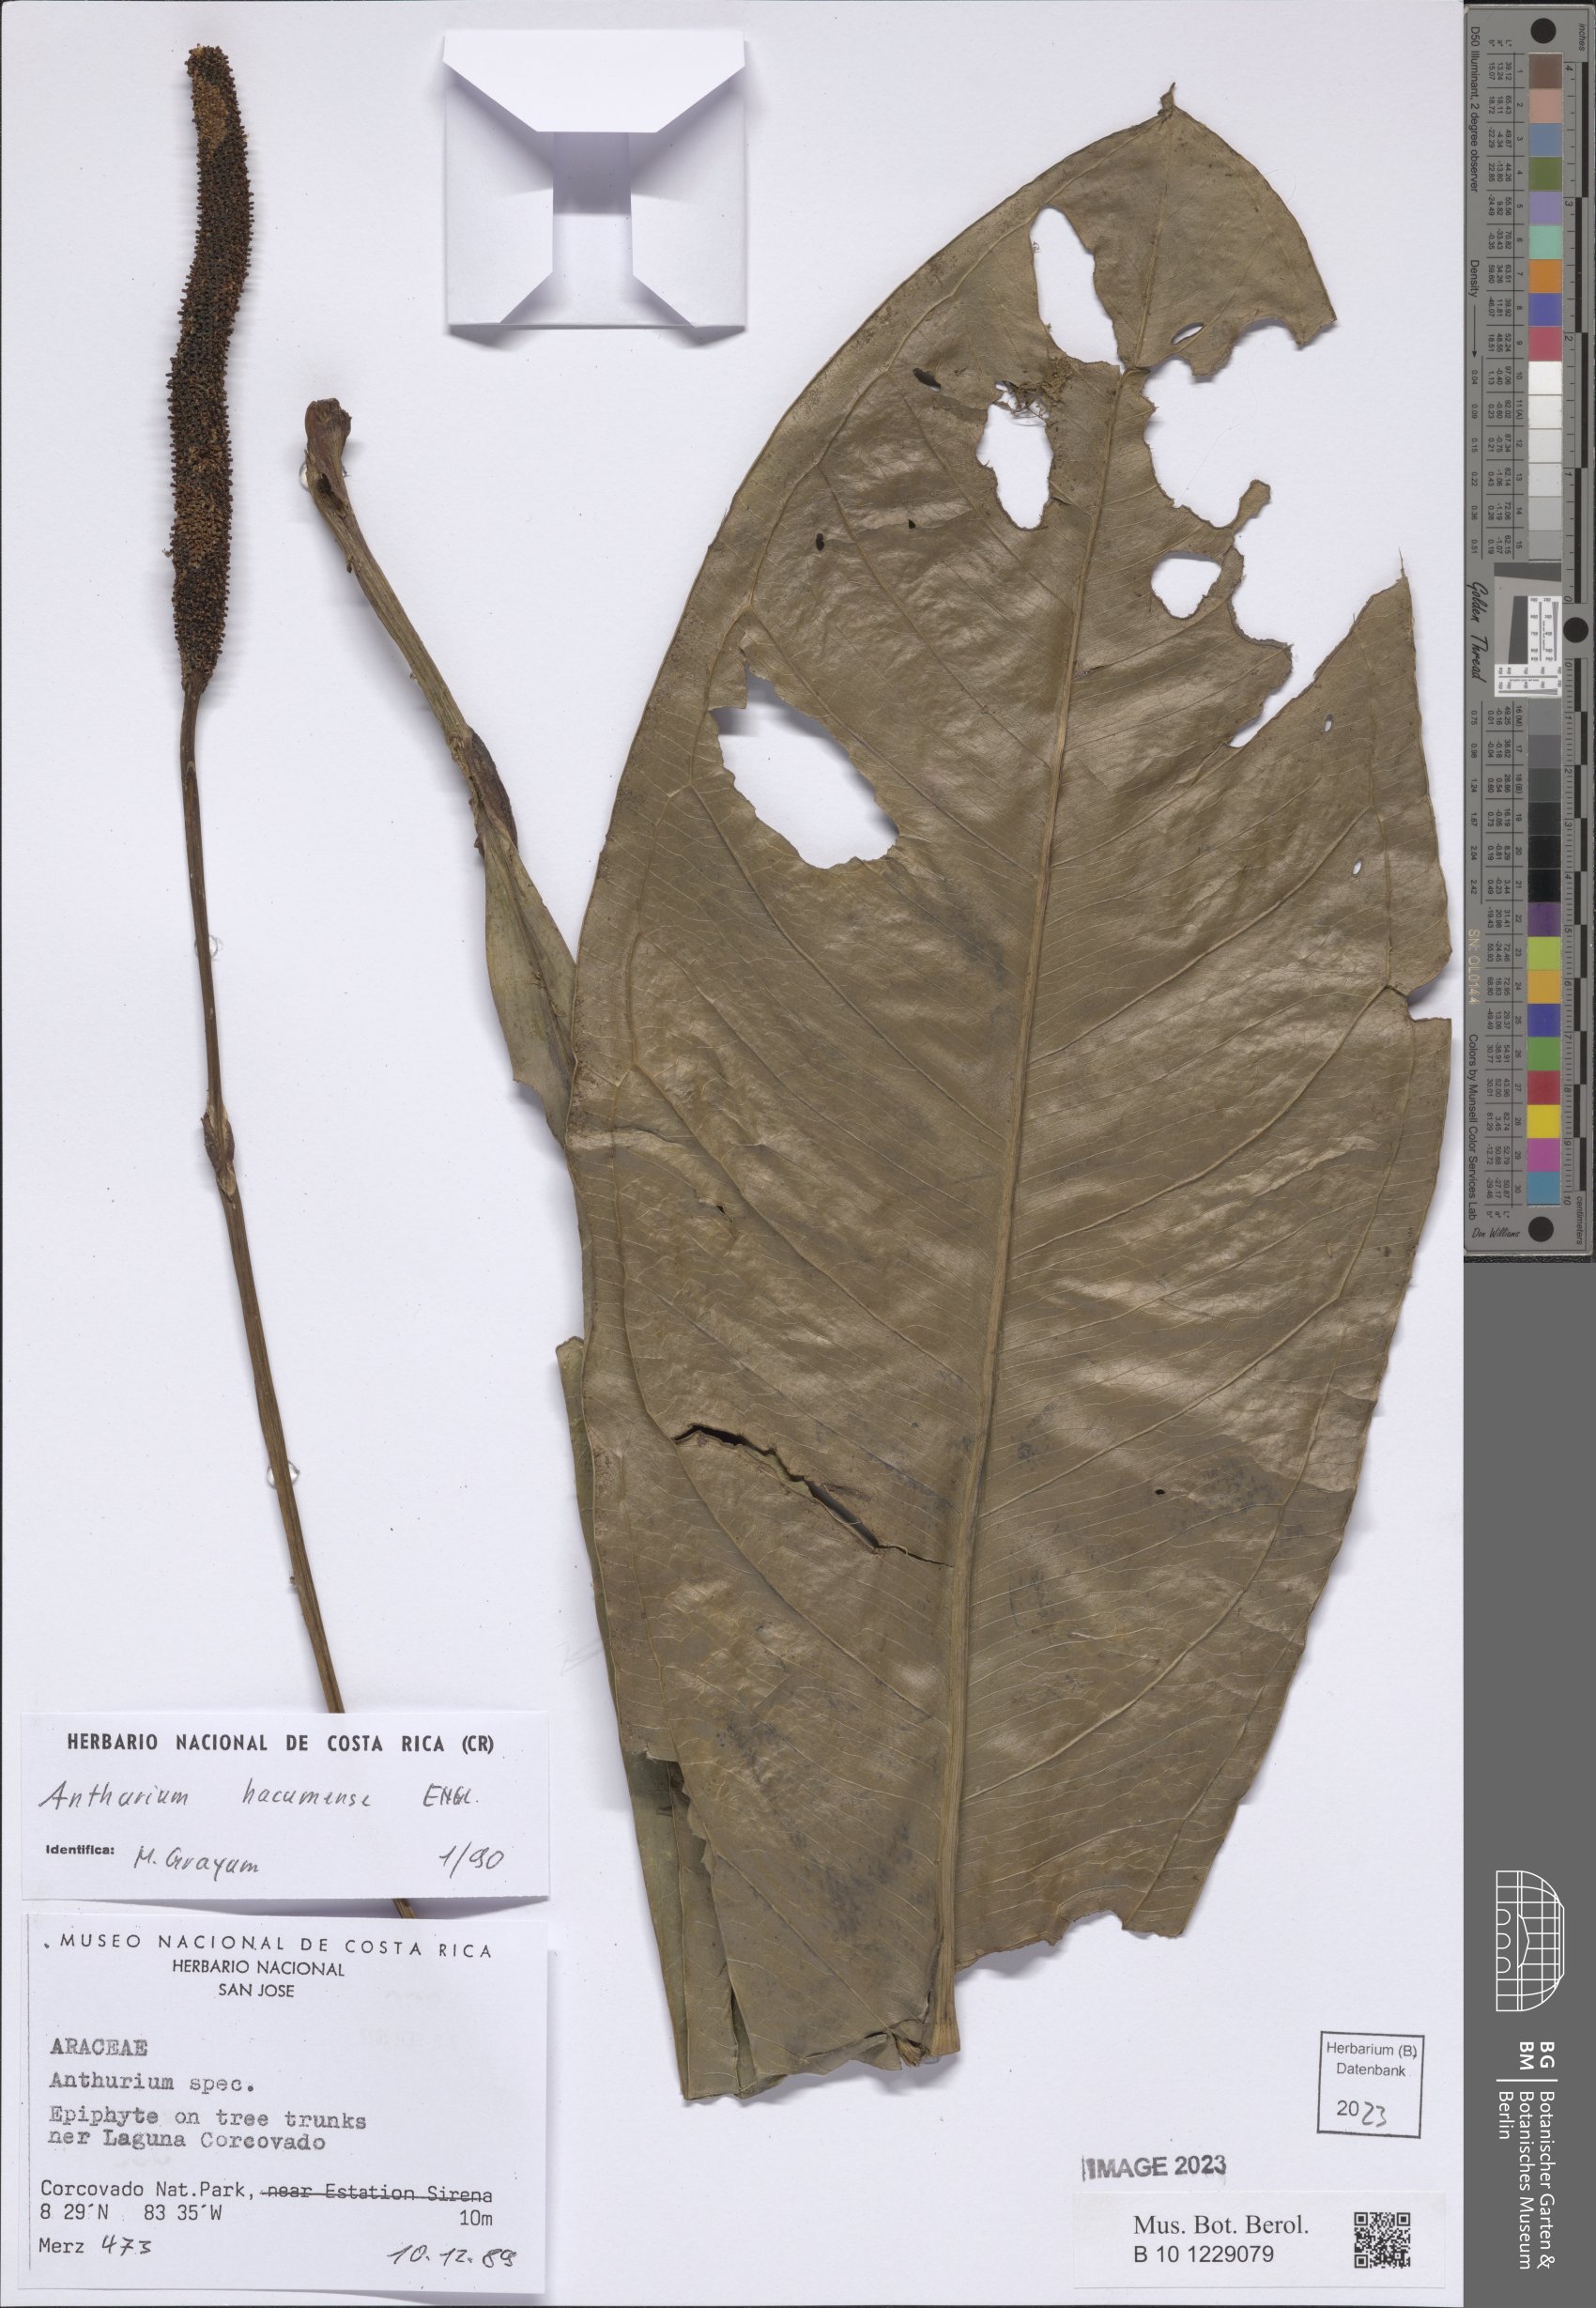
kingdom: Plantae
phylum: Tracheophyta
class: Liliopsida
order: Alismatales
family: Araceae
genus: Anthurium
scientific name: Anthurium hacumense
